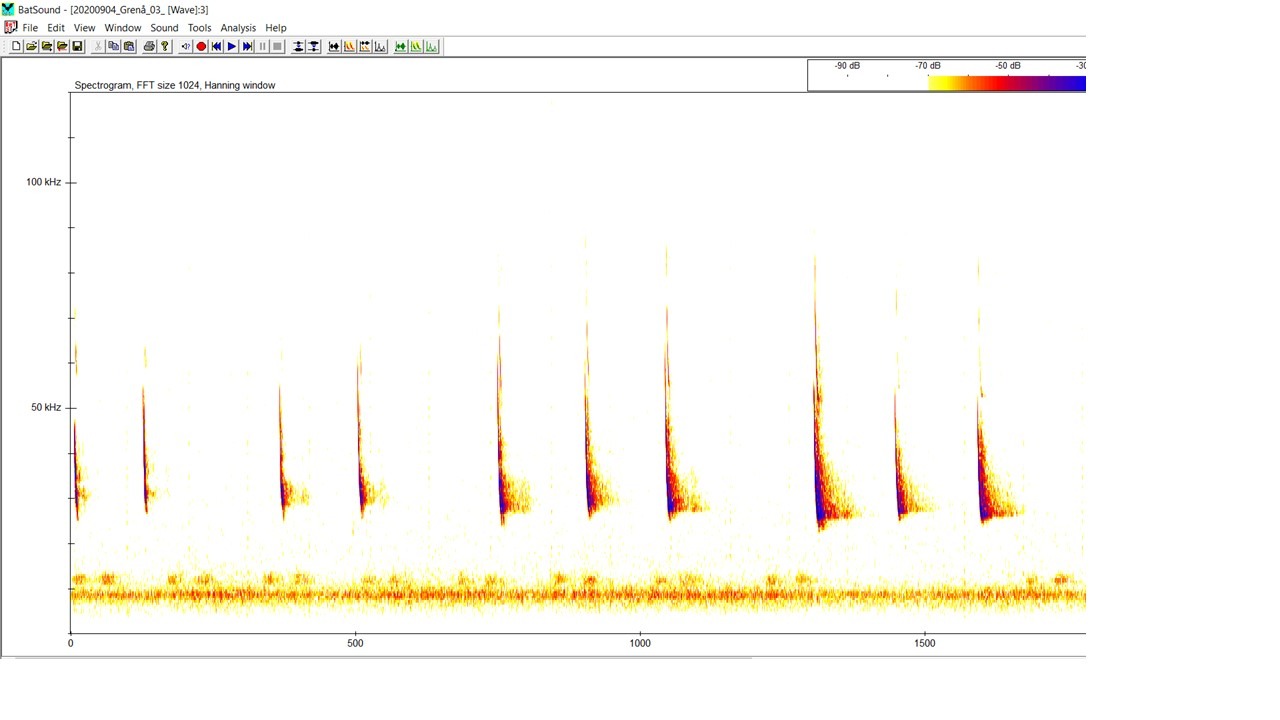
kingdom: Animalia
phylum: Chordata
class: Mammalia
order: Chiroptera
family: Vespertilionidae
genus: Myotis
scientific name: Myotis daubentonii
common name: Vandflagermus
